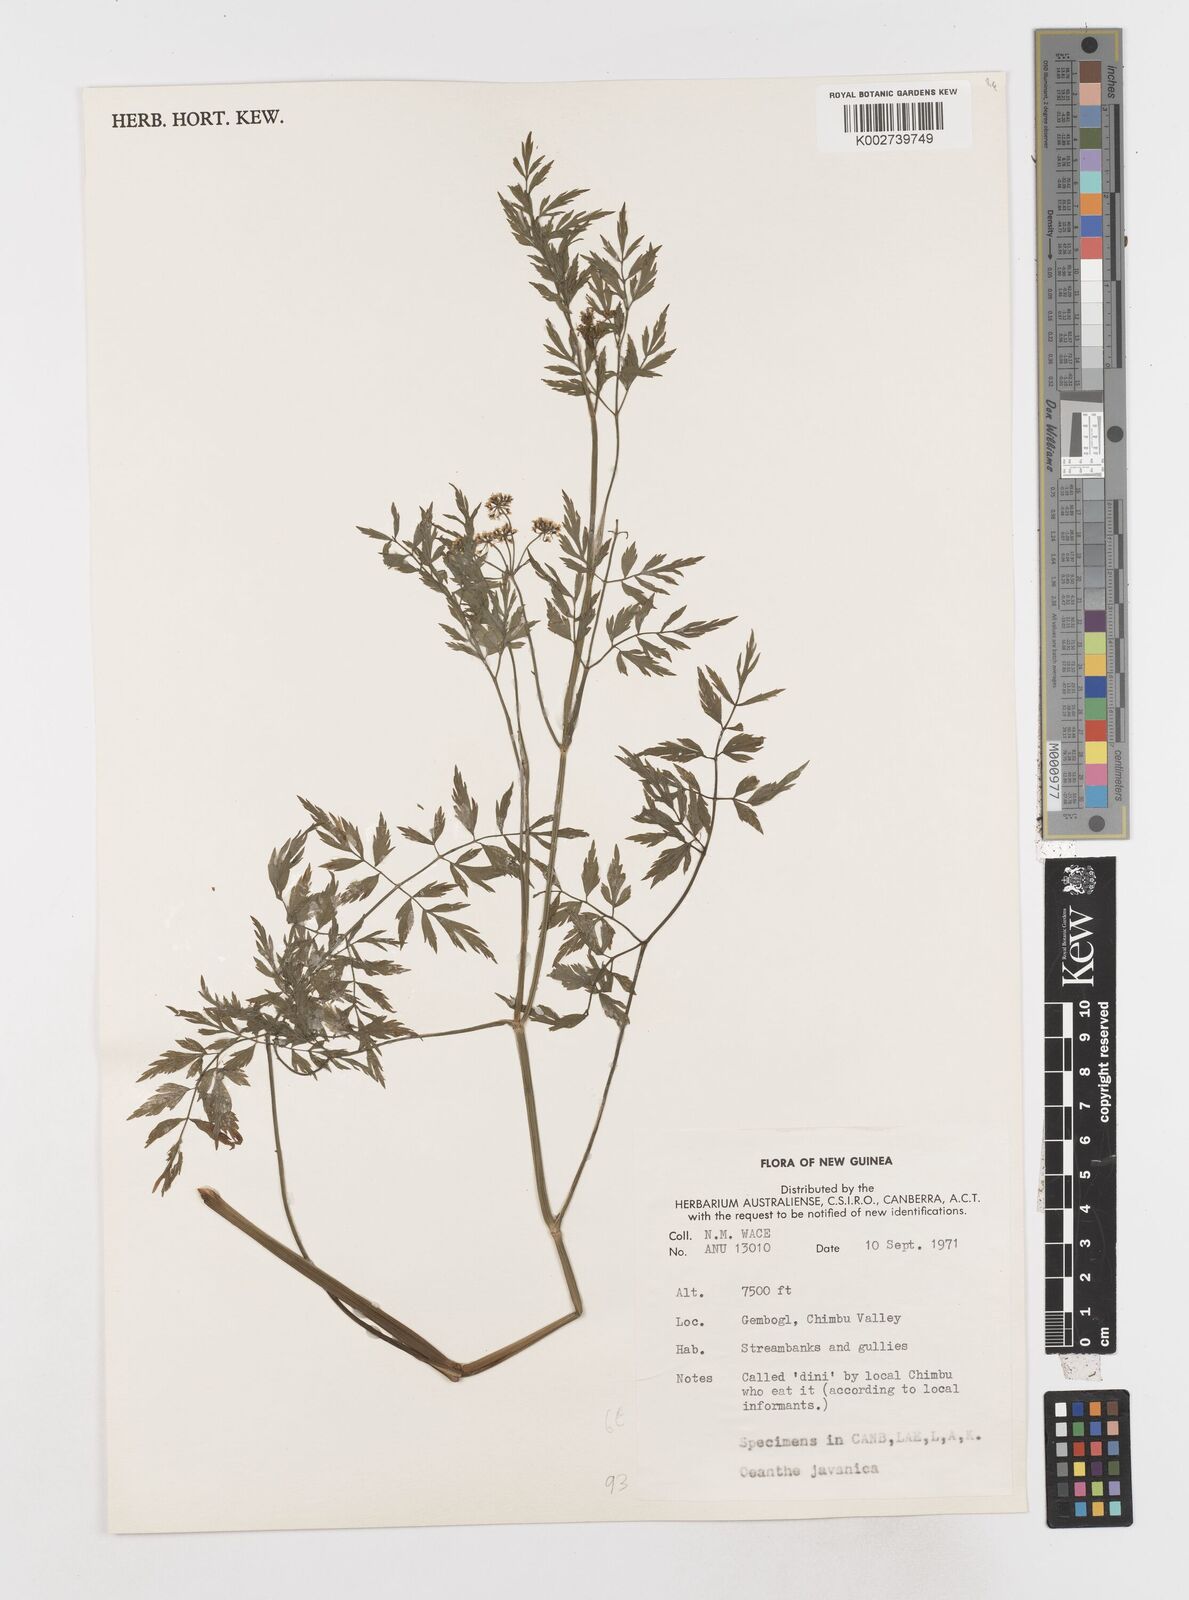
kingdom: Plantae
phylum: Tracheophyta
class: Magnoliopsida
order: Apiales
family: Apiaceae
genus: Oenanthe
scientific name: Oenanthe javanica
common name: Java water-dropwort
